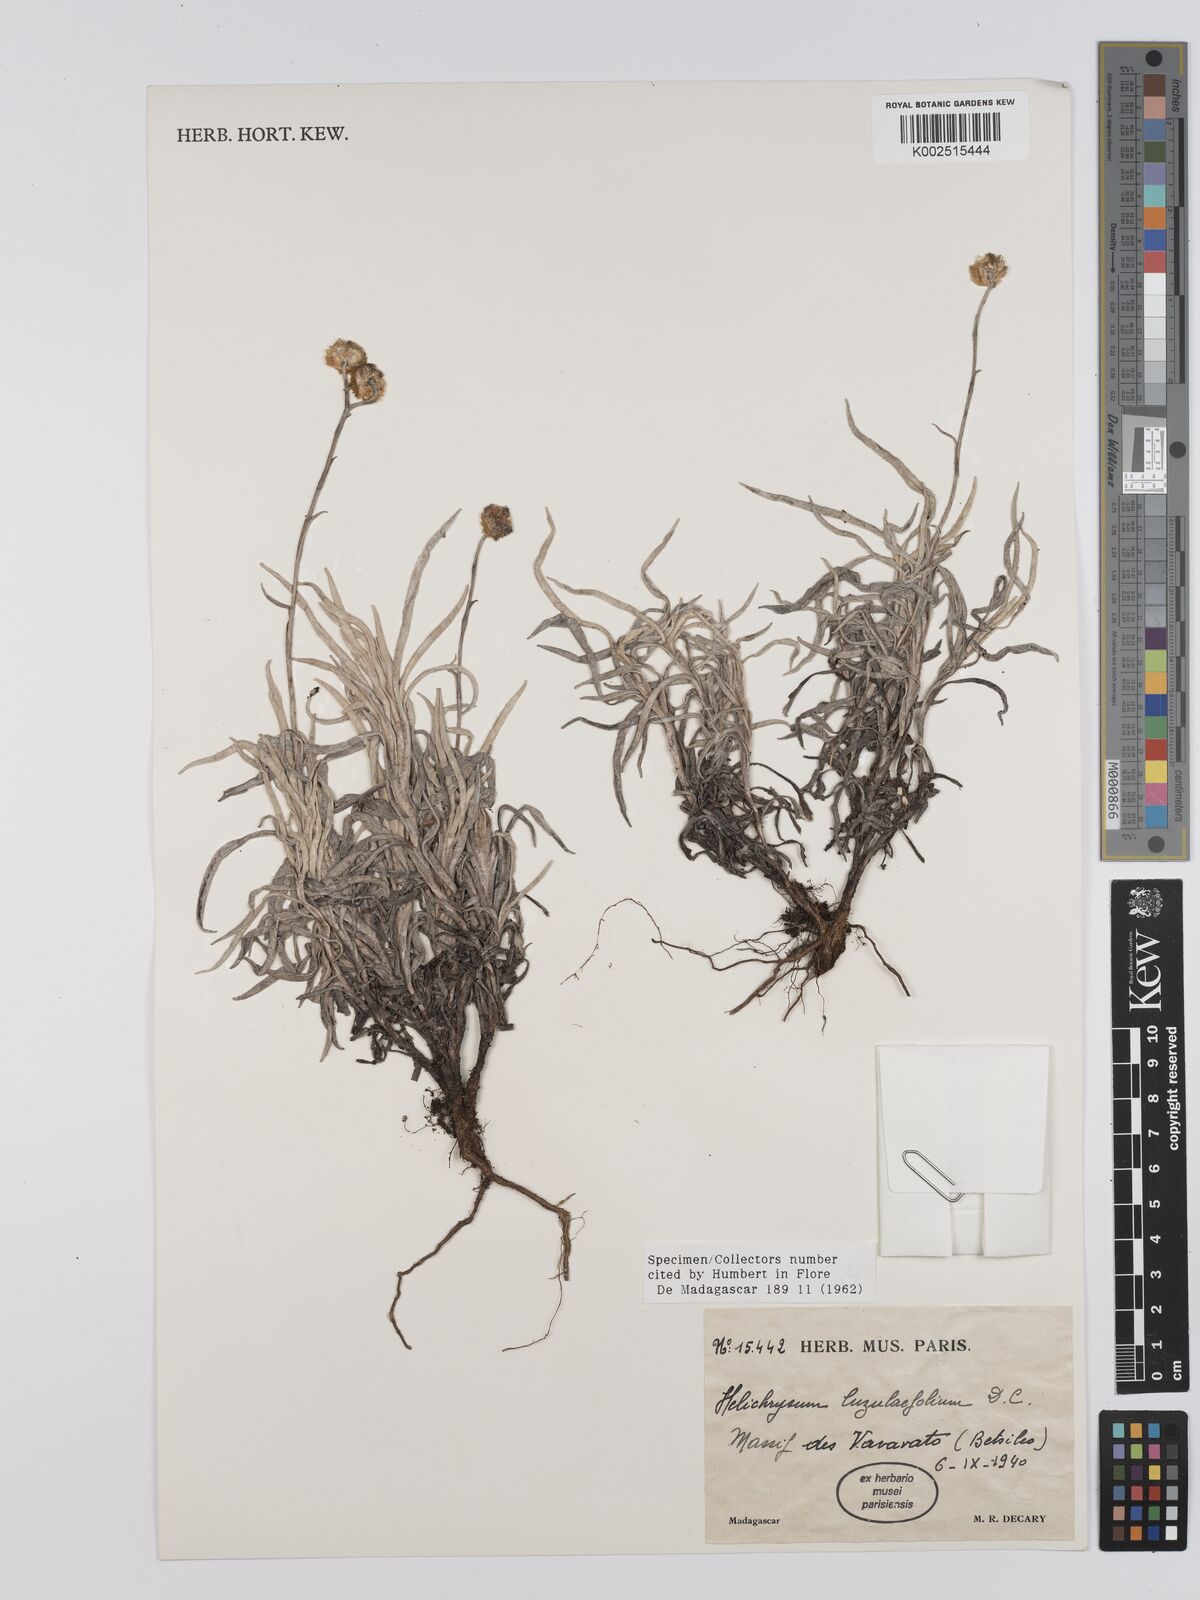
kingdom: Plantae
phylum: Tracheophyta
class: Magnoliopsida
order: Asterales
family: Asteraceae
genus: Helichrysum
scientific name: Helichrysum platycephalum
